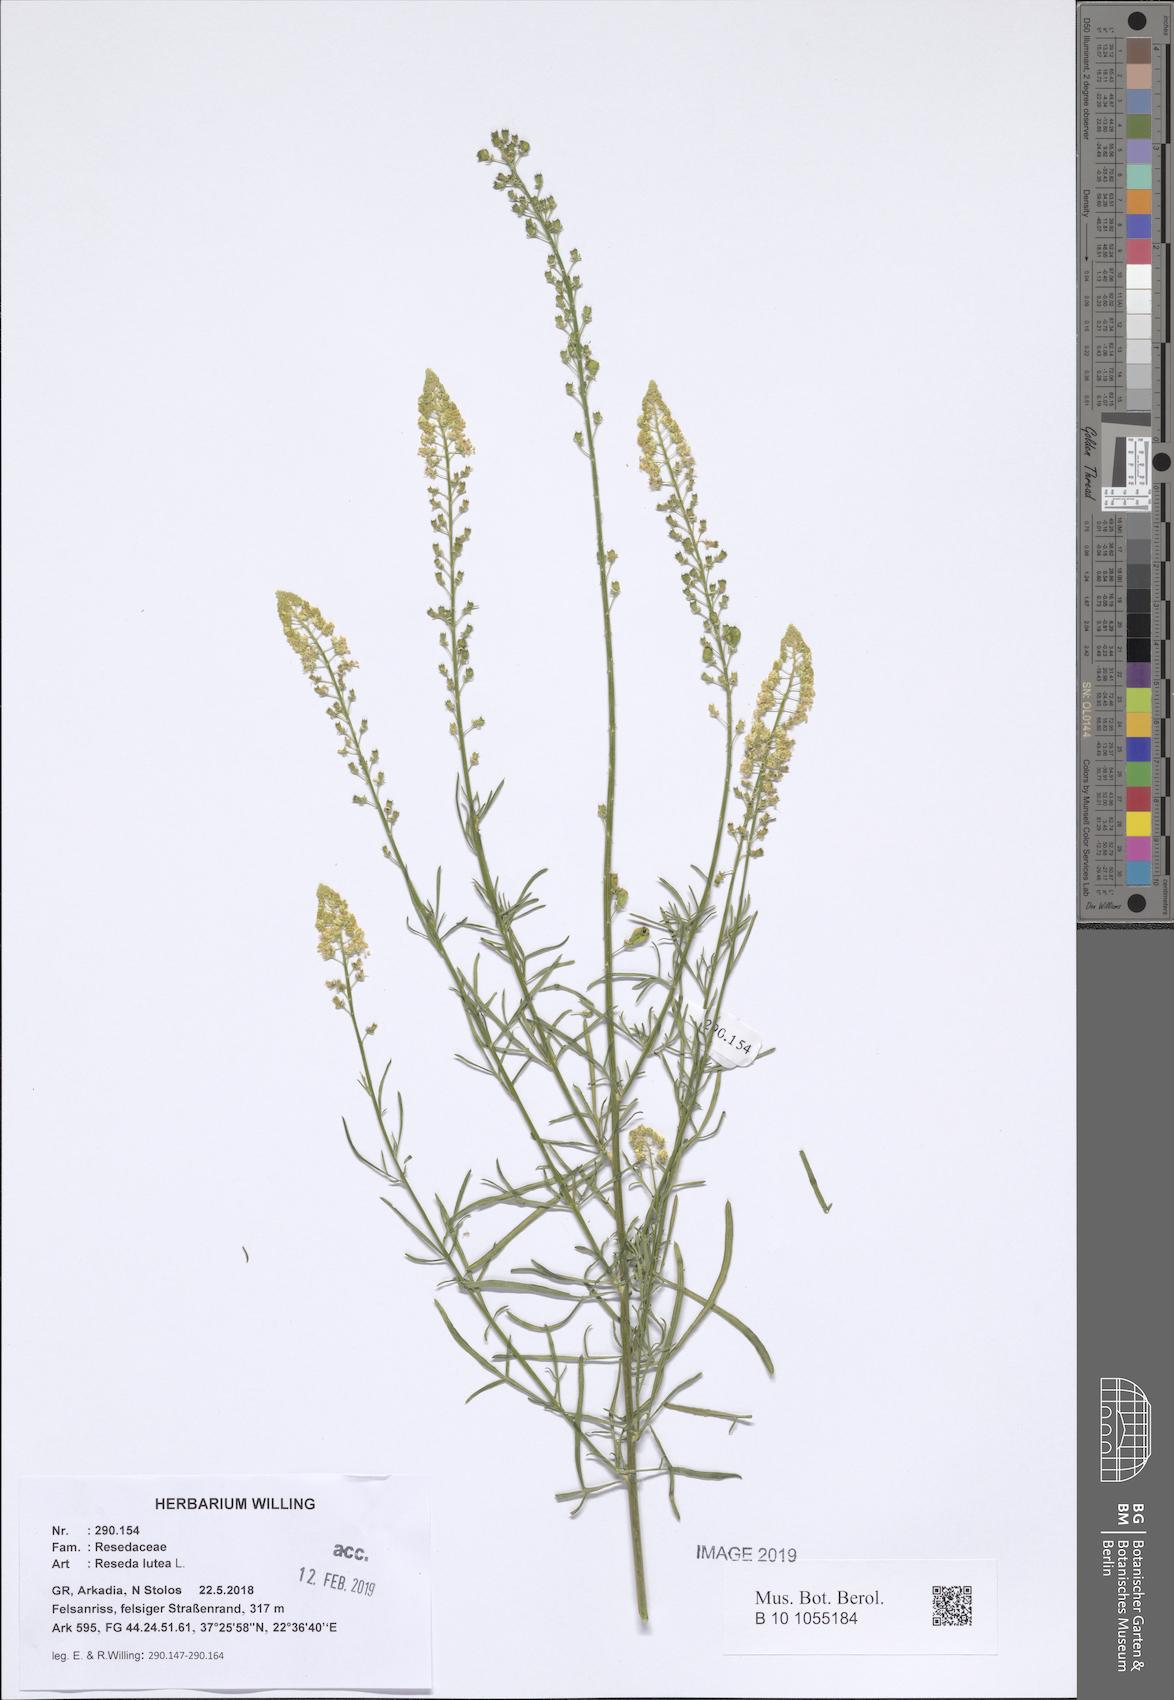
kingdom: Plantae
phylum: Tracheophyta
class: Magnoliopsida
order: Brassicales
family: Resedaceae
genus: Reseda
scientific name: Reseda lutea
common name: Wild mignonette
